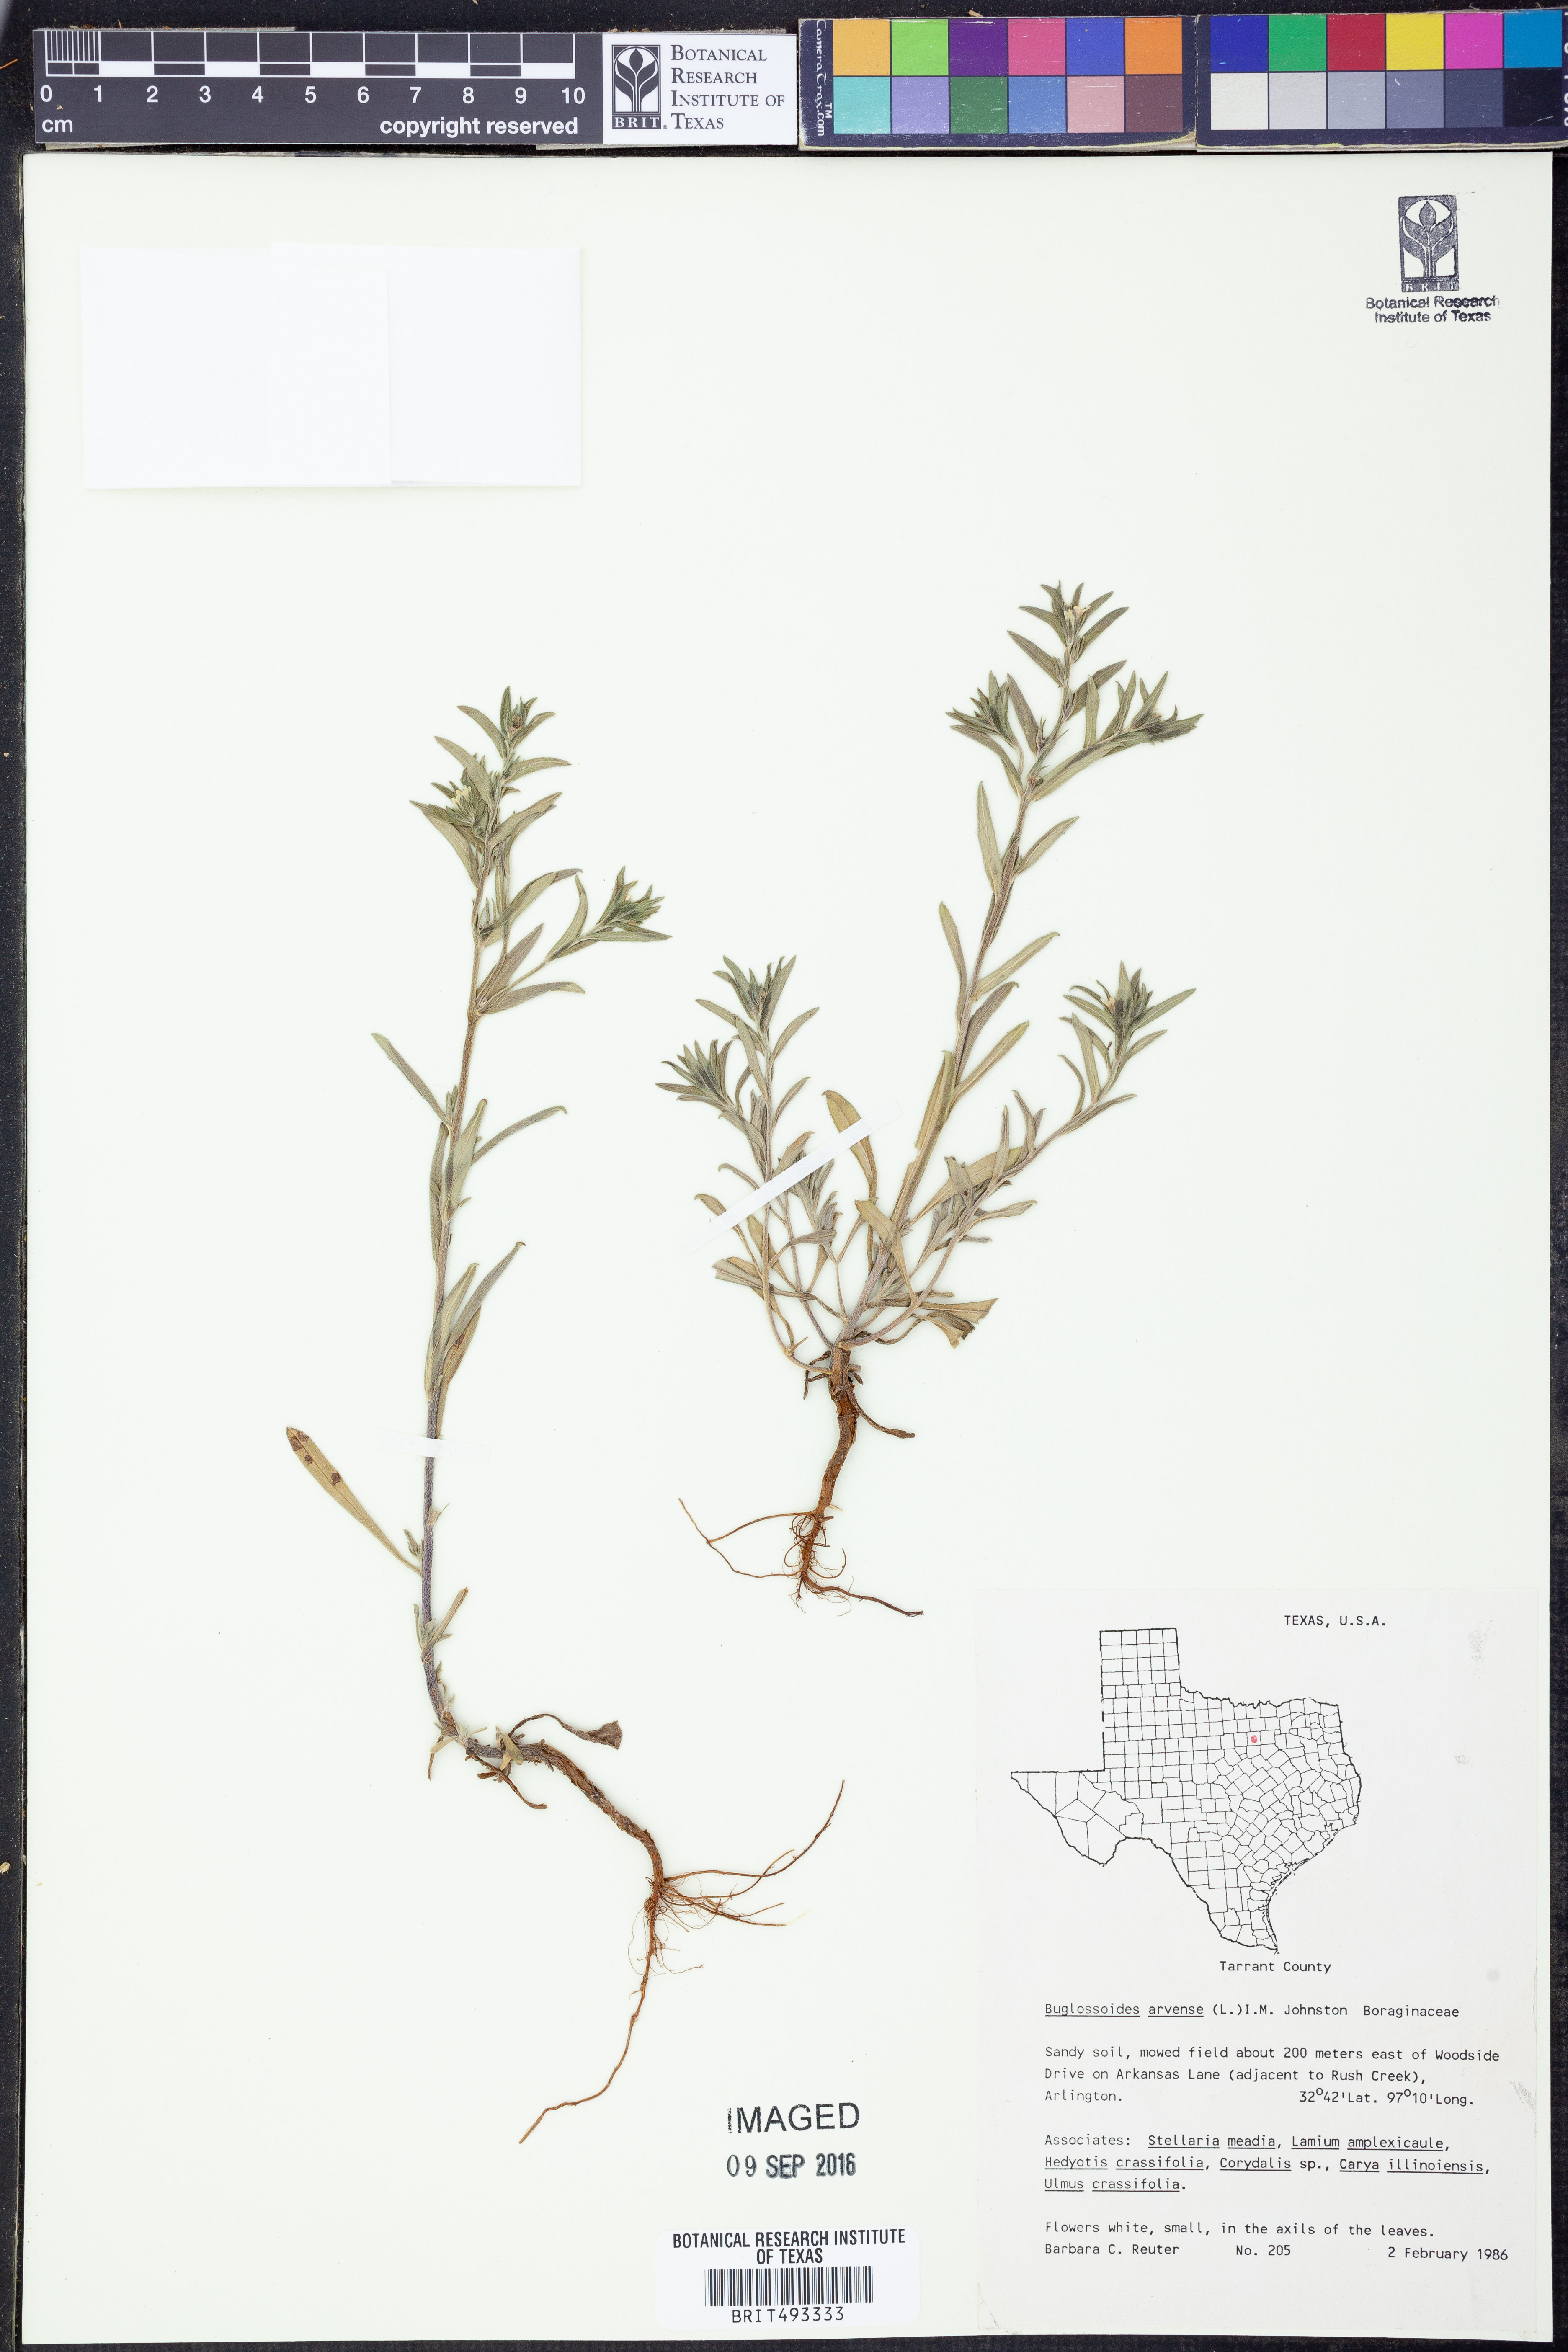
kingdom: Plantae
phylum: Tracheophyta
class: Magnoliopsida
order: Boraginales
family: Boraginaceae
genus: Buglossoides
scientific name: Buglossoides arvensis
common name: Corn gromwell
